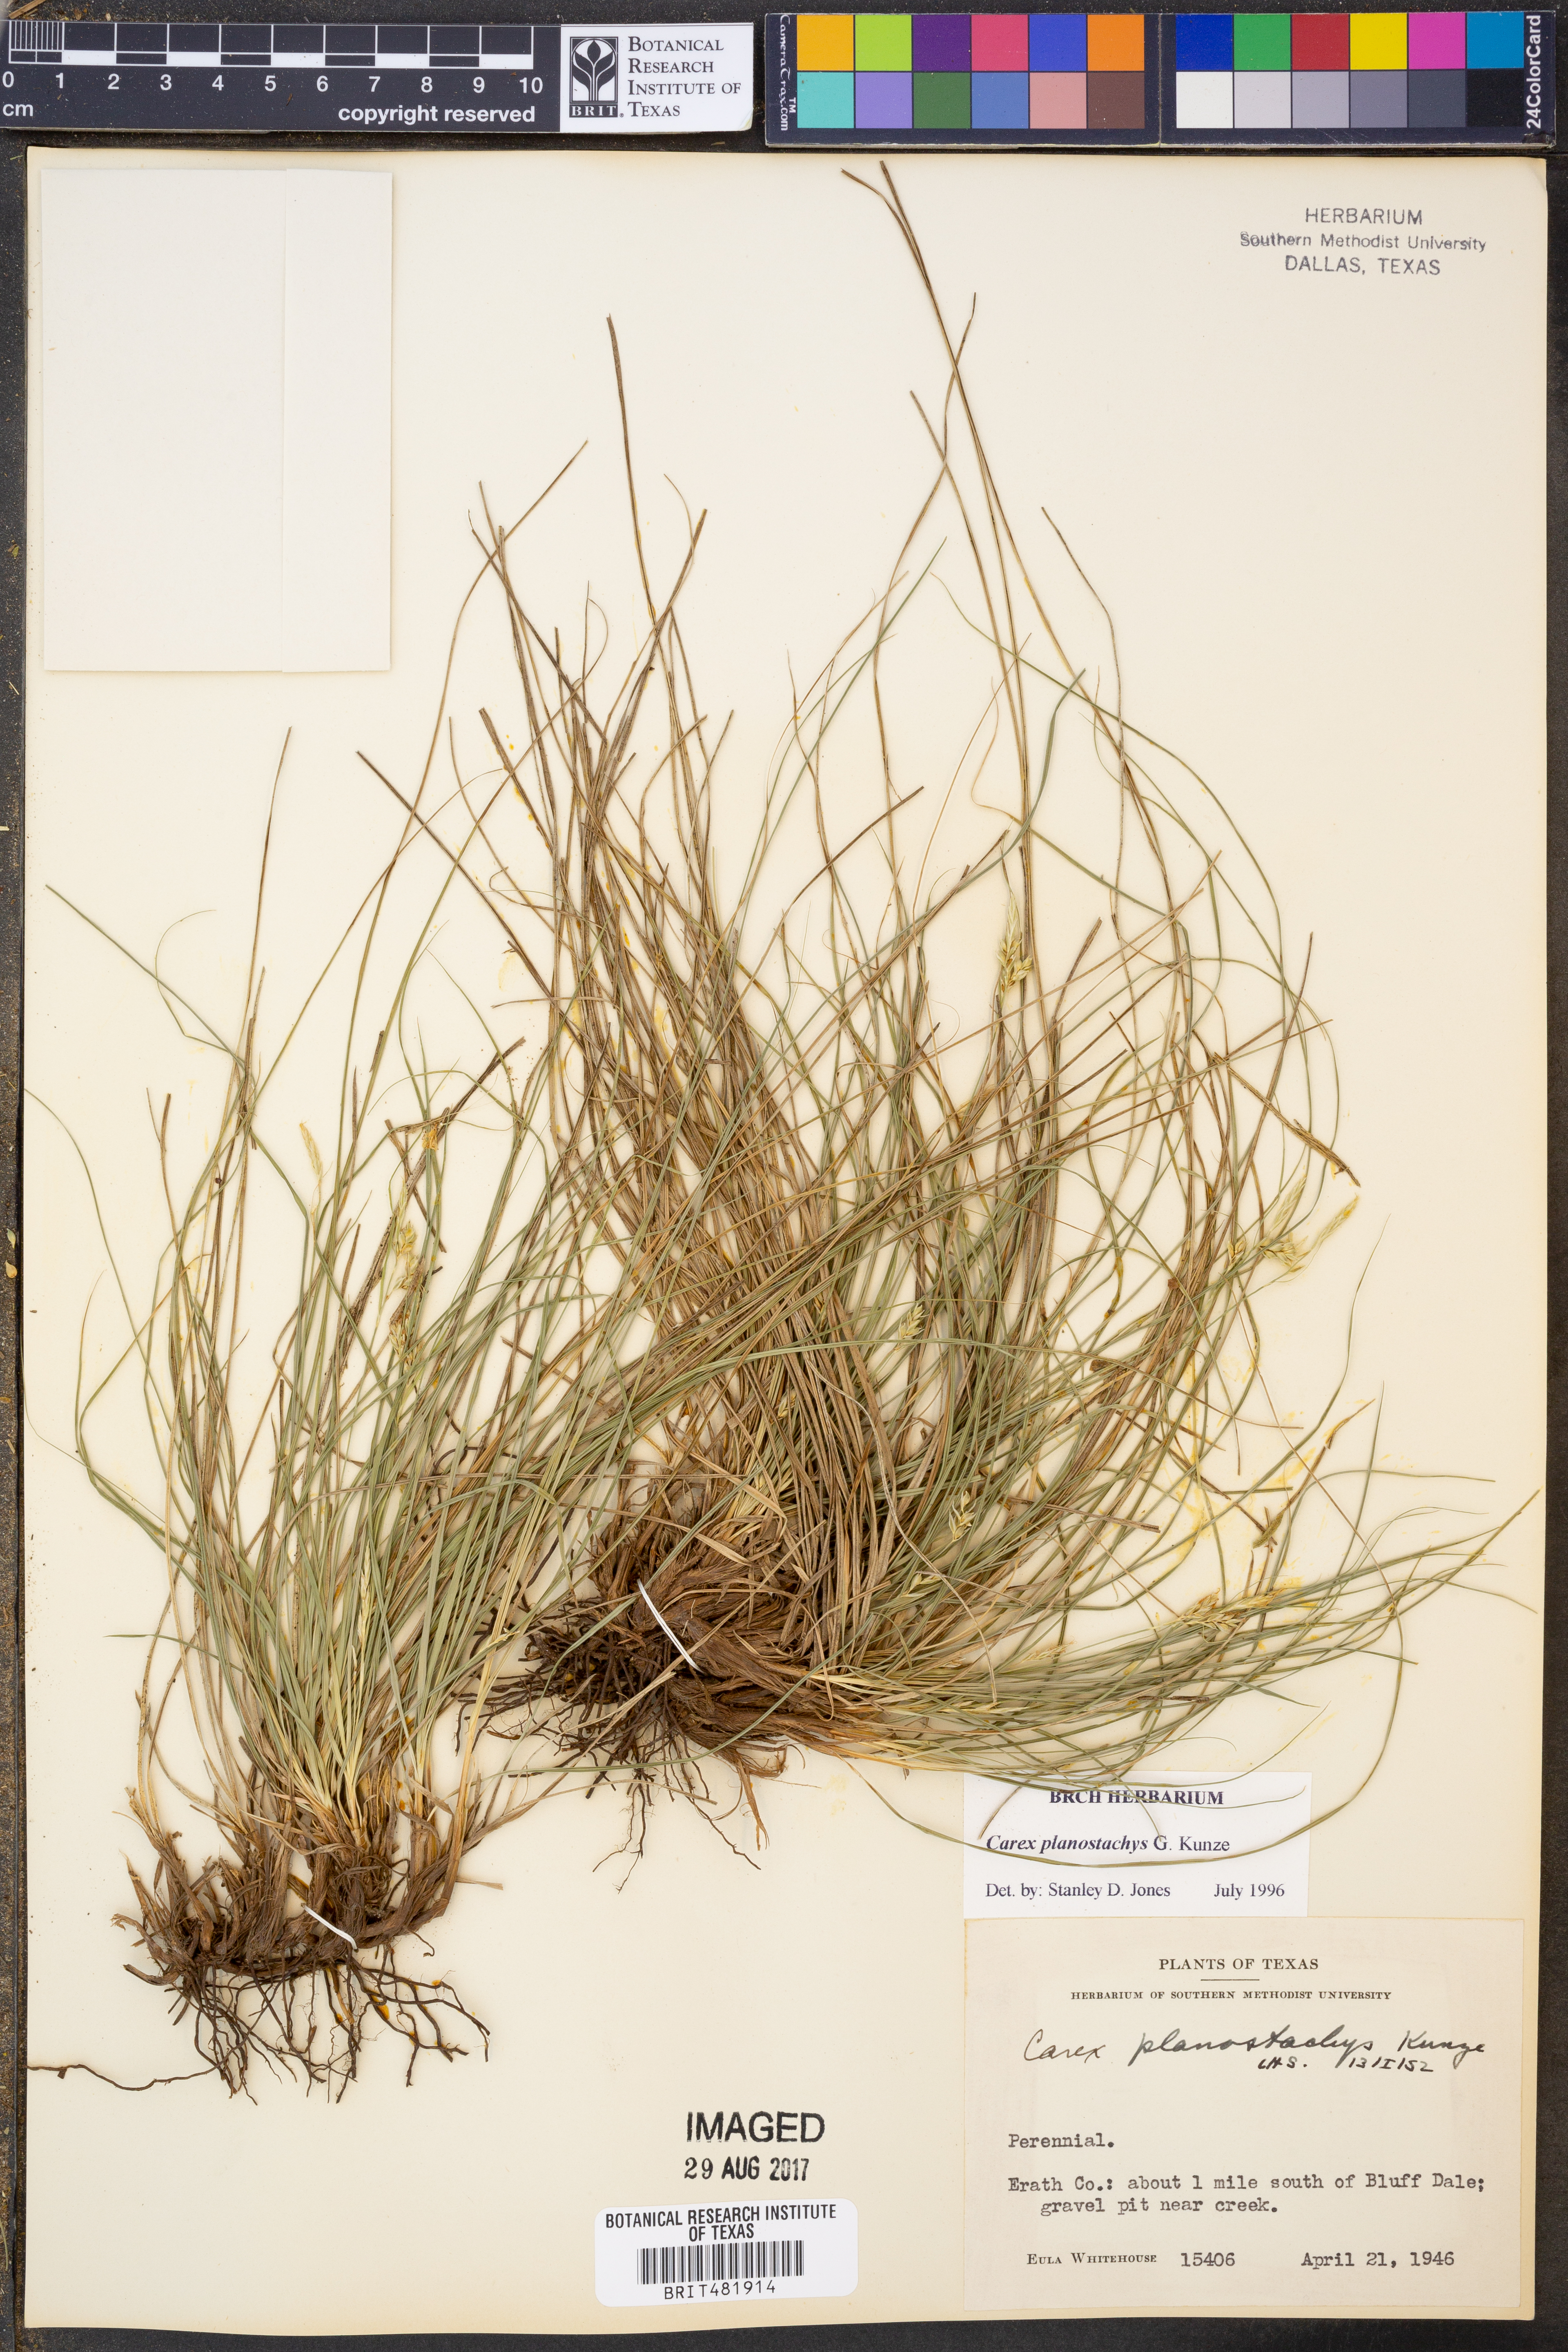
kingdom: Plantae
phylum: Tracheophyta
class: Liliopsida
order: Poales
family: Cyperaceae
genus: Carex
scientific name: Carex planostachys
